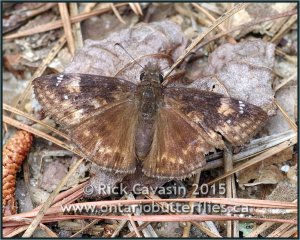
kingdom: Animalia
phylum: Arthropoda
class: Insecta
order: Lepidoptera
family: Hesperiidae
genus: Erynnis
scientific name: Erynnis zarucco
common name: Zarucco Duskywing
